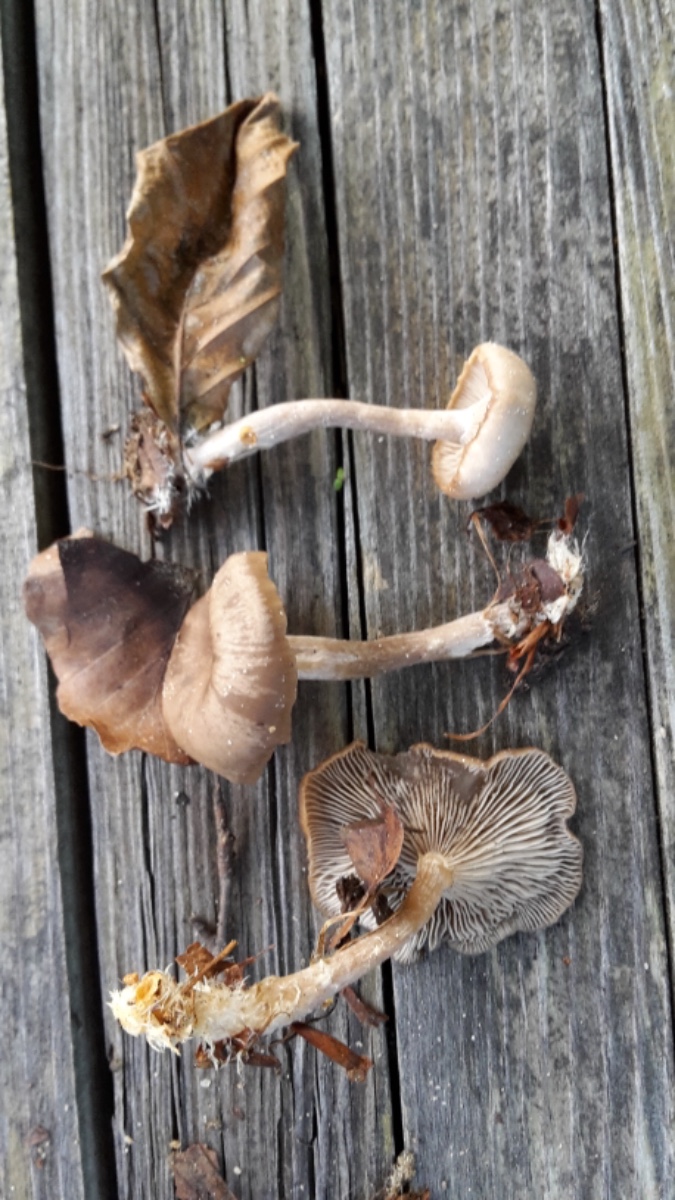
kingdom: Fungi
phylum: Basidiomycota
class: Agaricomycetes
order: Agaricales
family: Tricholomataceae
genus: Clitocybe
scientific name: Clitocybe subspadicea
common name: nitrøs tragthat
